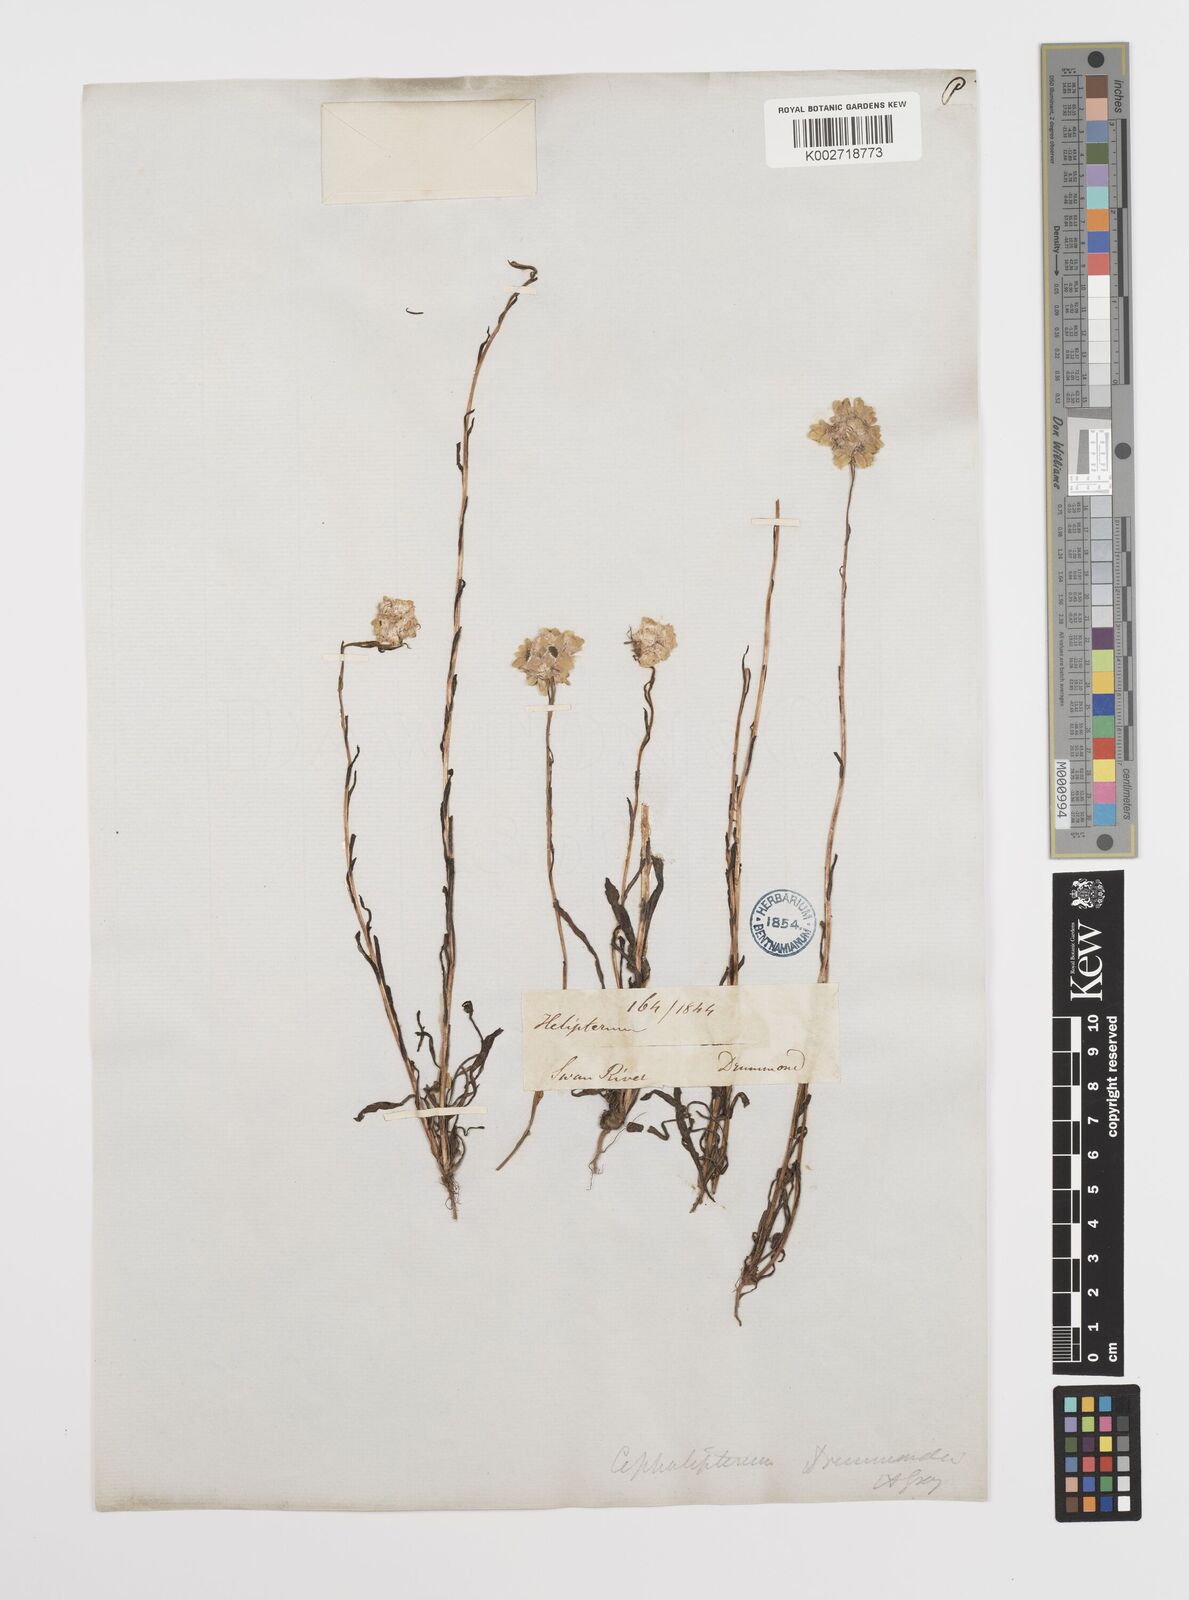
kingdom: Plantae
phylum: Tracheophyta
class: Magnoliopsida
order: Asterales
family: Asteraceae
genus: Cephalipterum
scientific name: Cephalipterum
